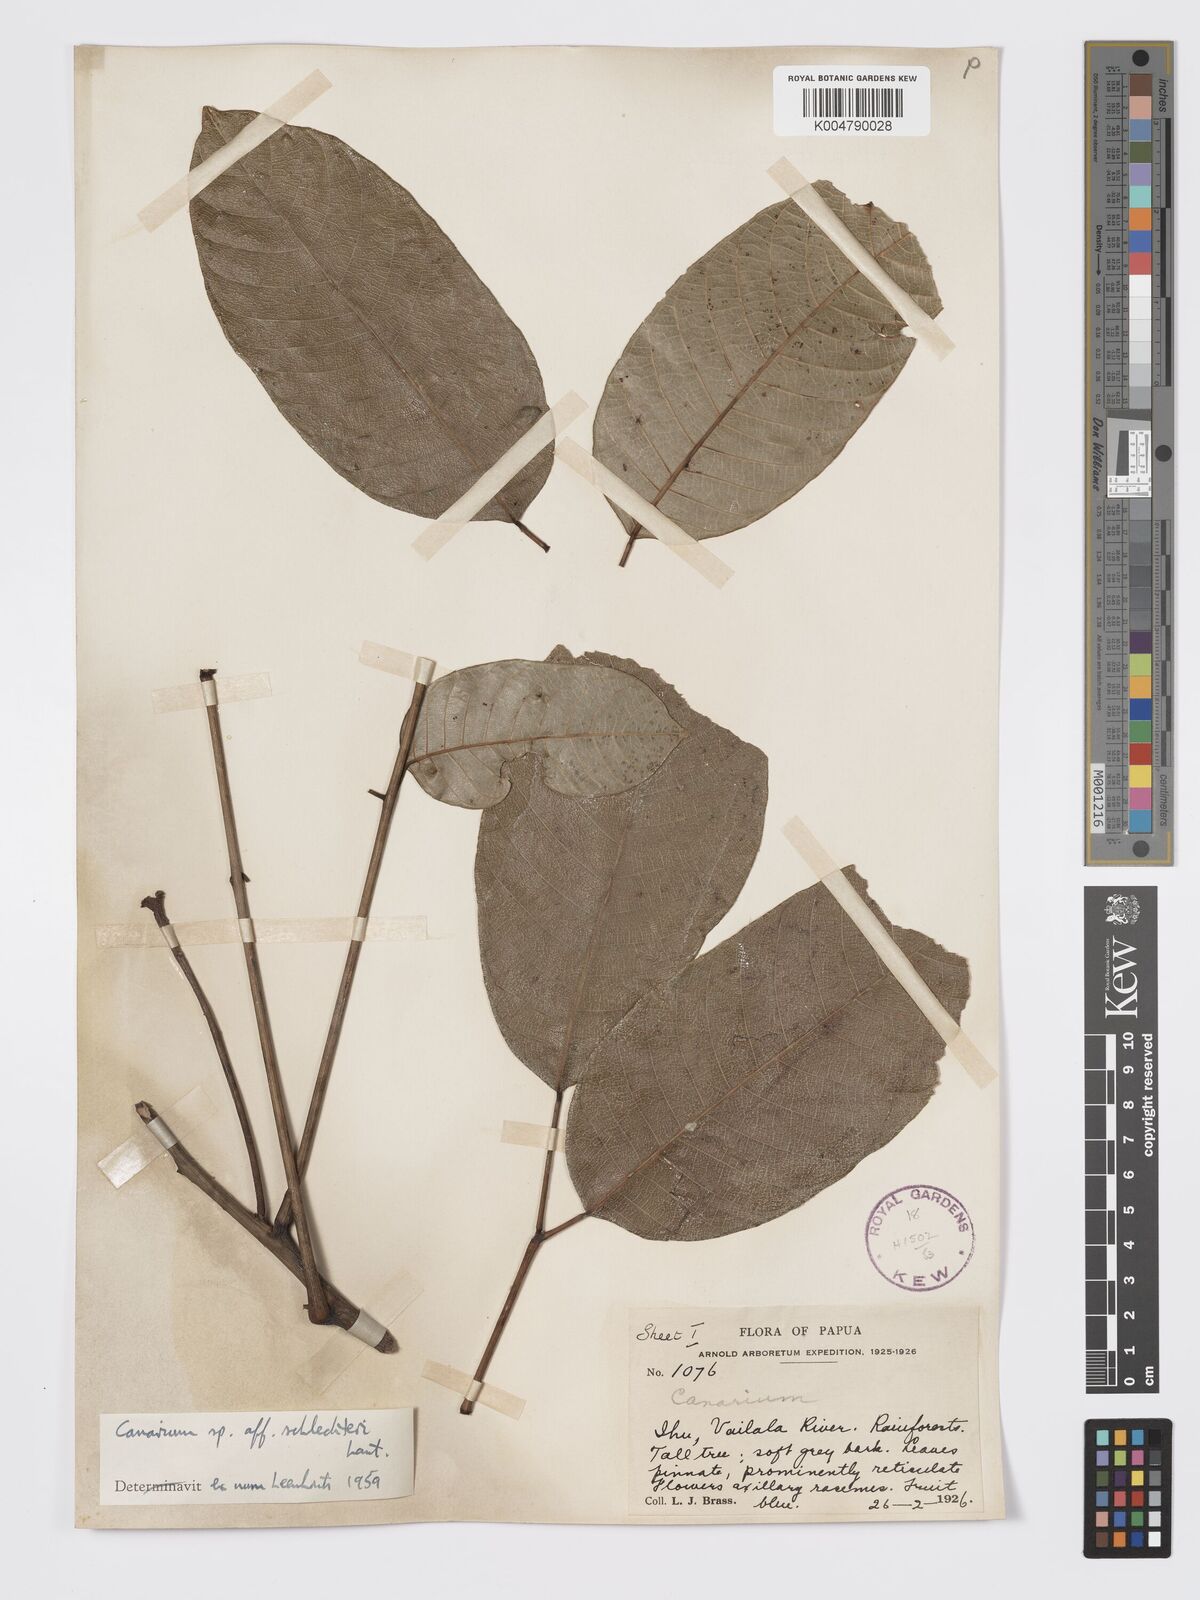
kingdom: Plantae
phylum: Tracheophyta
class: Magnoliopsida
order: Sapindales
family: Burseraceae
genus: Canarium
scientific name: Canarium schlechteri
